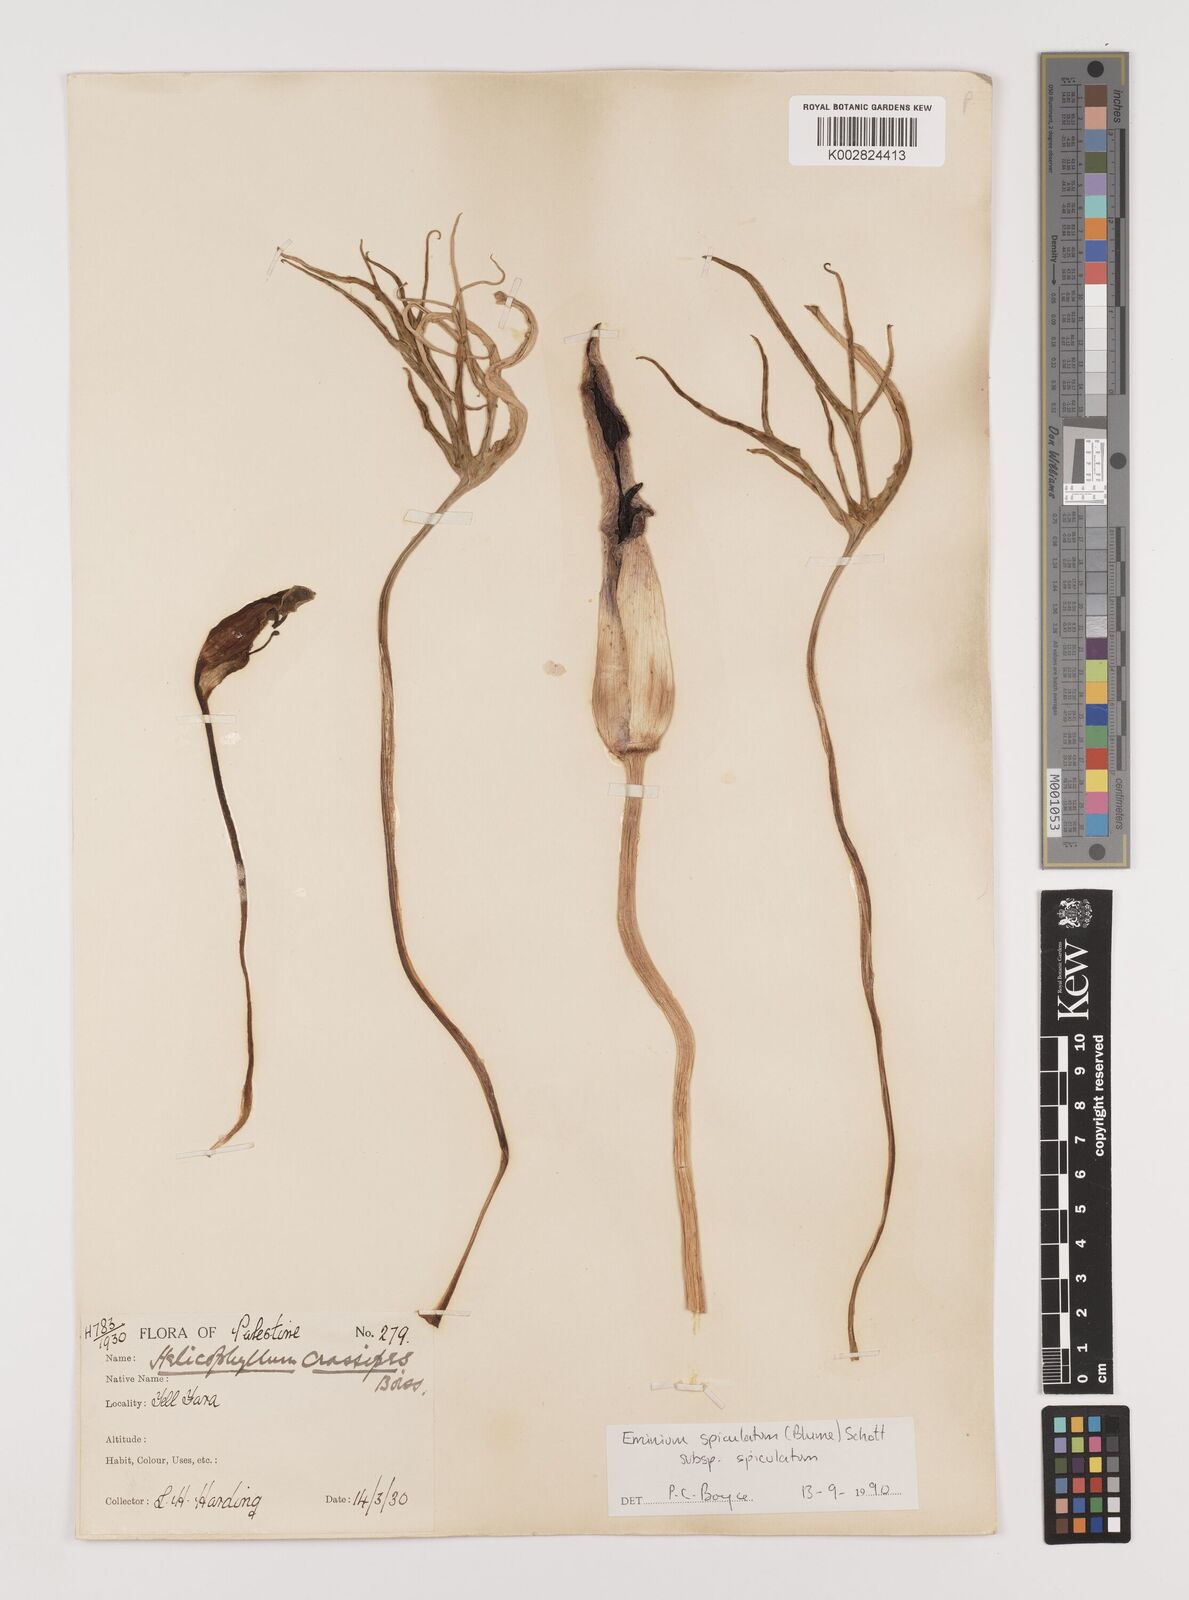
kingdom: Plantae
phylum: Tracheophyta
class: Liliopsida
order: Alismatales
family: Araceae
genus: Eminium
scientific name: Eminium spiculatum
